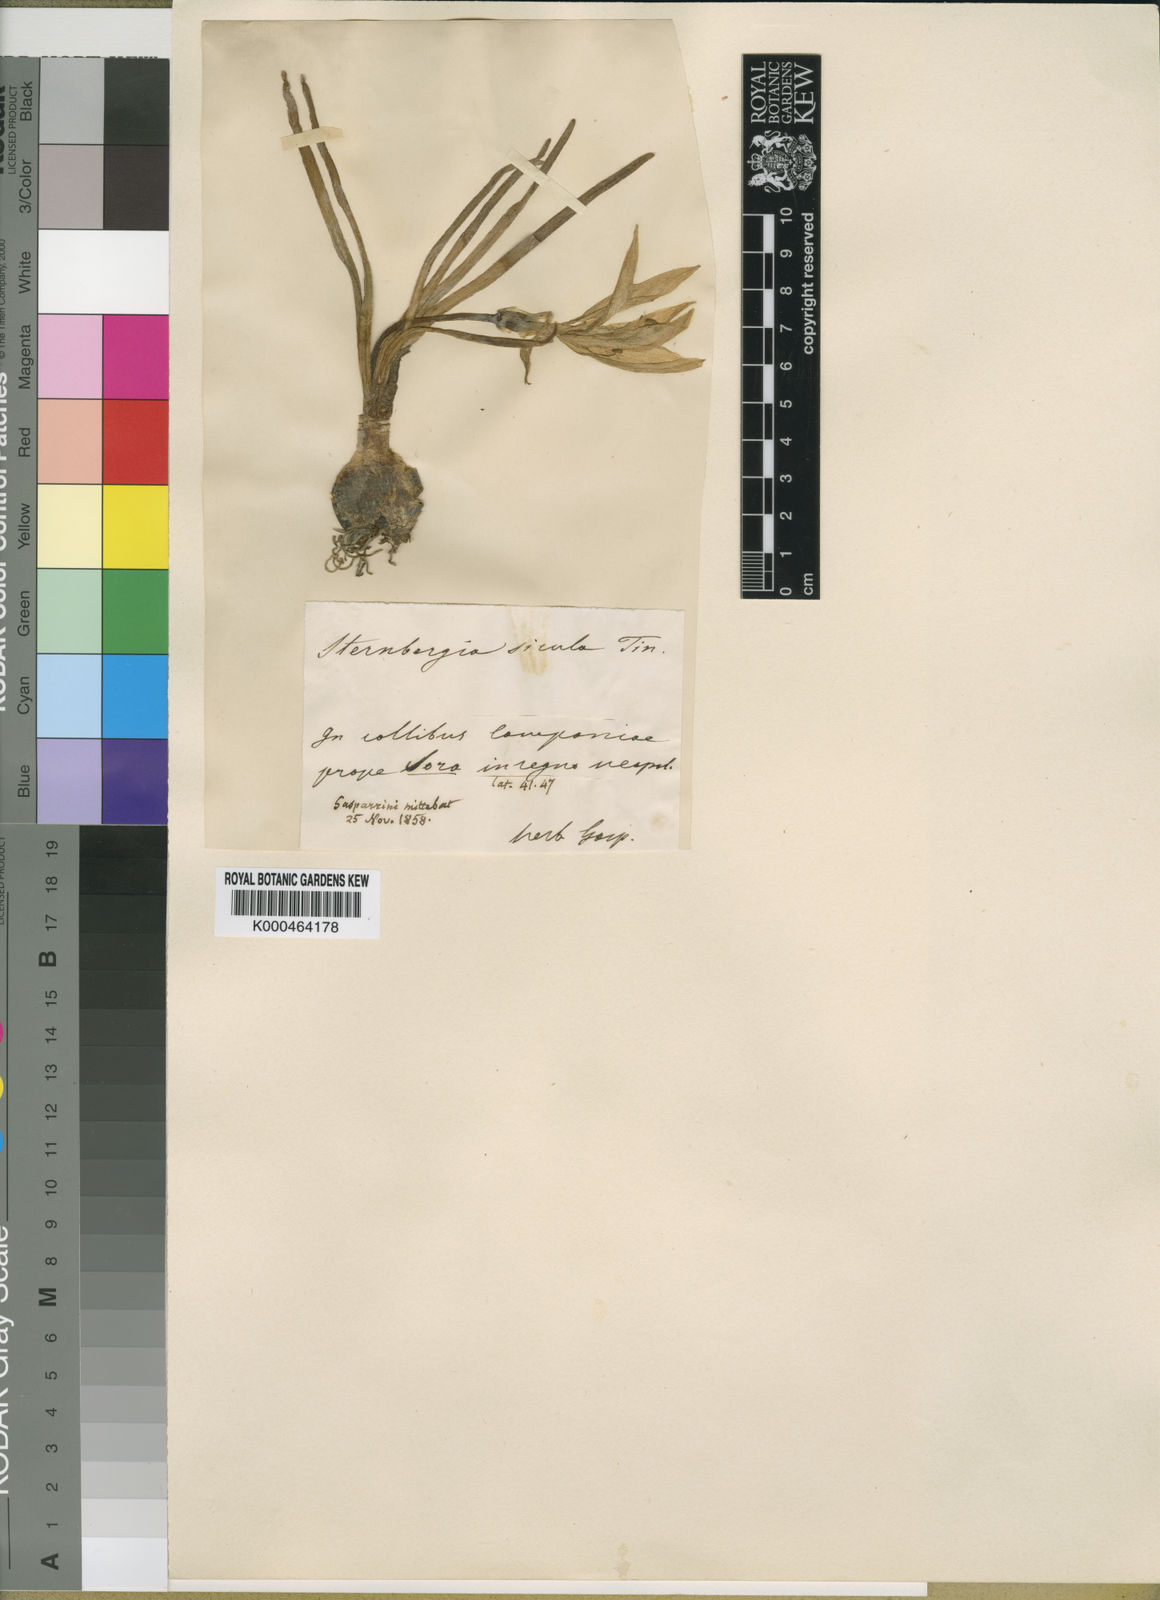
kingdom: Plantae
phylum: Tracheophyta
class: Liliopsida
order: Asparagales
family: Amaryllidaceae
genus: Sternbergia
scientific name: Sternbergia
